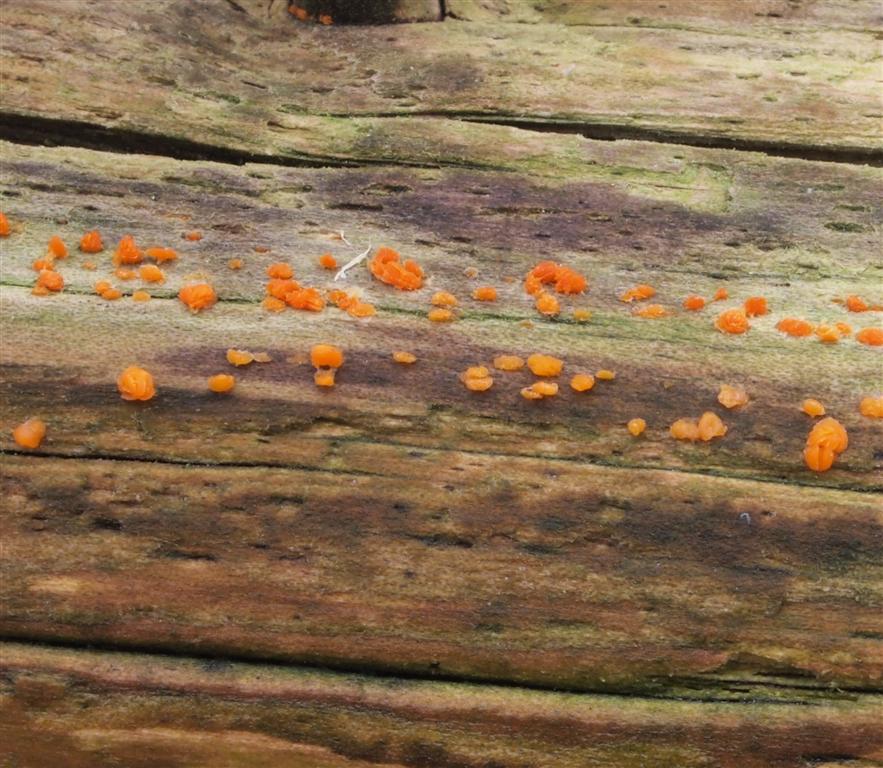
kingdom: Fungi
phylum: Basidiomycota
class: Dacrymycetes
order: Dacrymycetales
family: Dacrymycetaceae
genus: Dacrymyces
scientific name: Dacrymyces lacrymalis
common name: rynket tåresvamp
